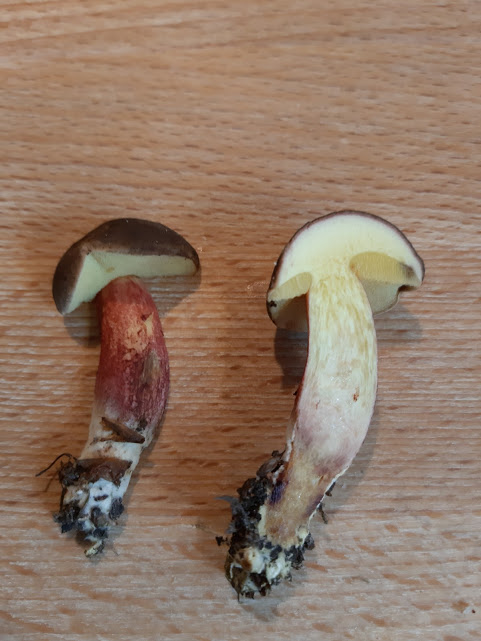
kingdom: Fungi
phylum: Basidiomycota
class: Agaricomycetes
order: Boletales
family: Boletaceae
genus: Xerocomellus
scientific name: Xerocomellus chrysenteron
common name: rødsprukken rørhat
